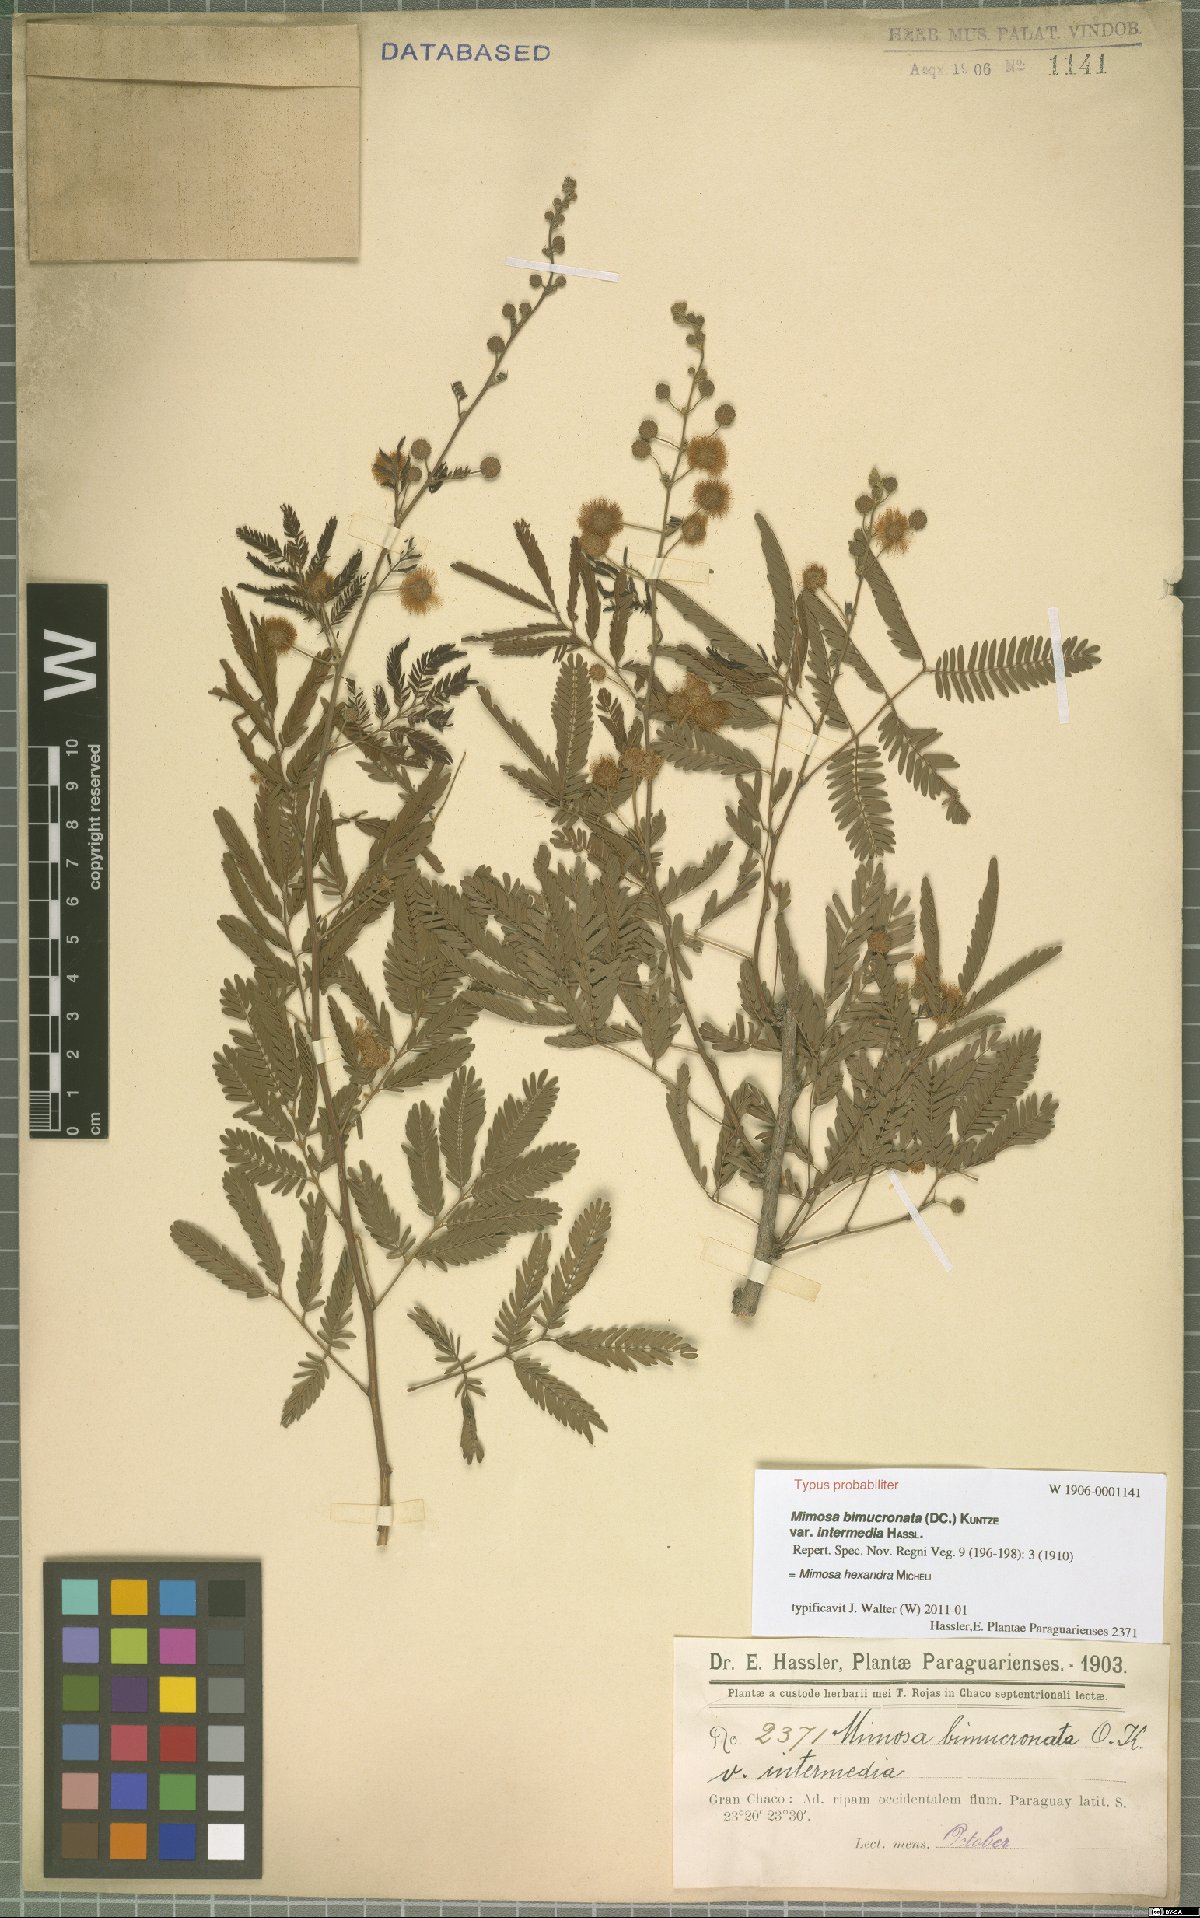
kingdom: Plantae
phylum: Tracheophyta
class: Magnoliopsida
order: Fabales
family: Fabaceae
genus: Mimosa
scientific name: Mimosa hexandra
